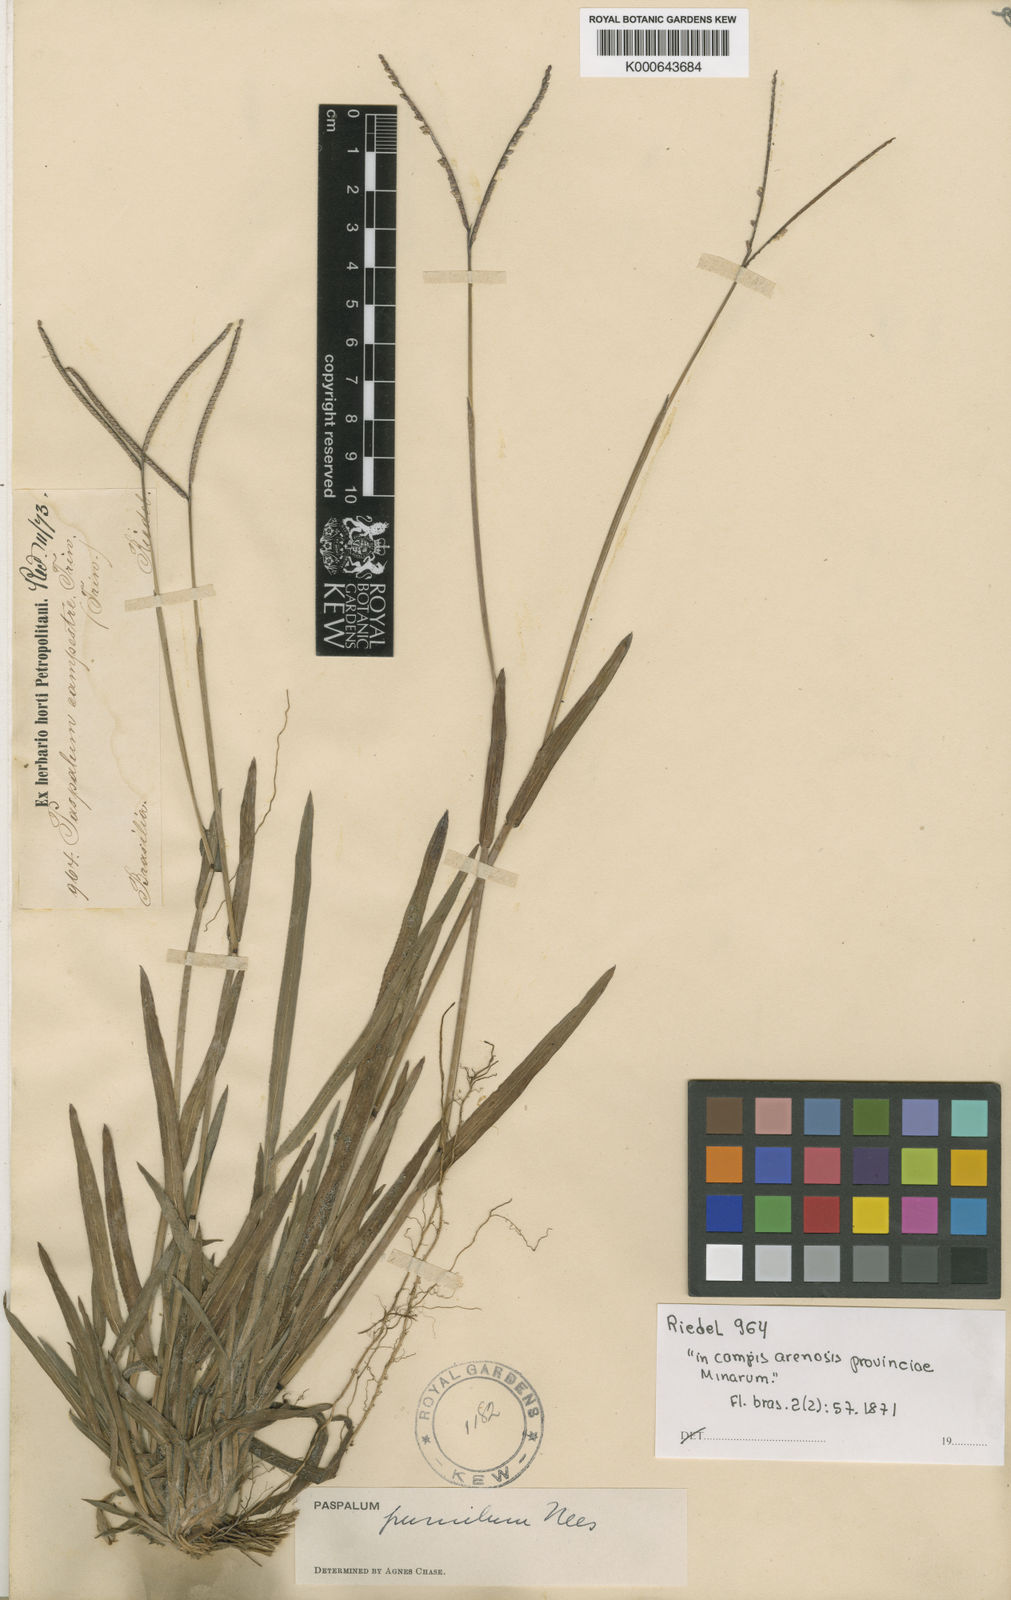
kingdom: Plantae
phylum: Tracheophyta
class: Liliopsida
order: Poales
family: Poaceae
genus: Paspalum
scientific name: Paspalum pumilum
